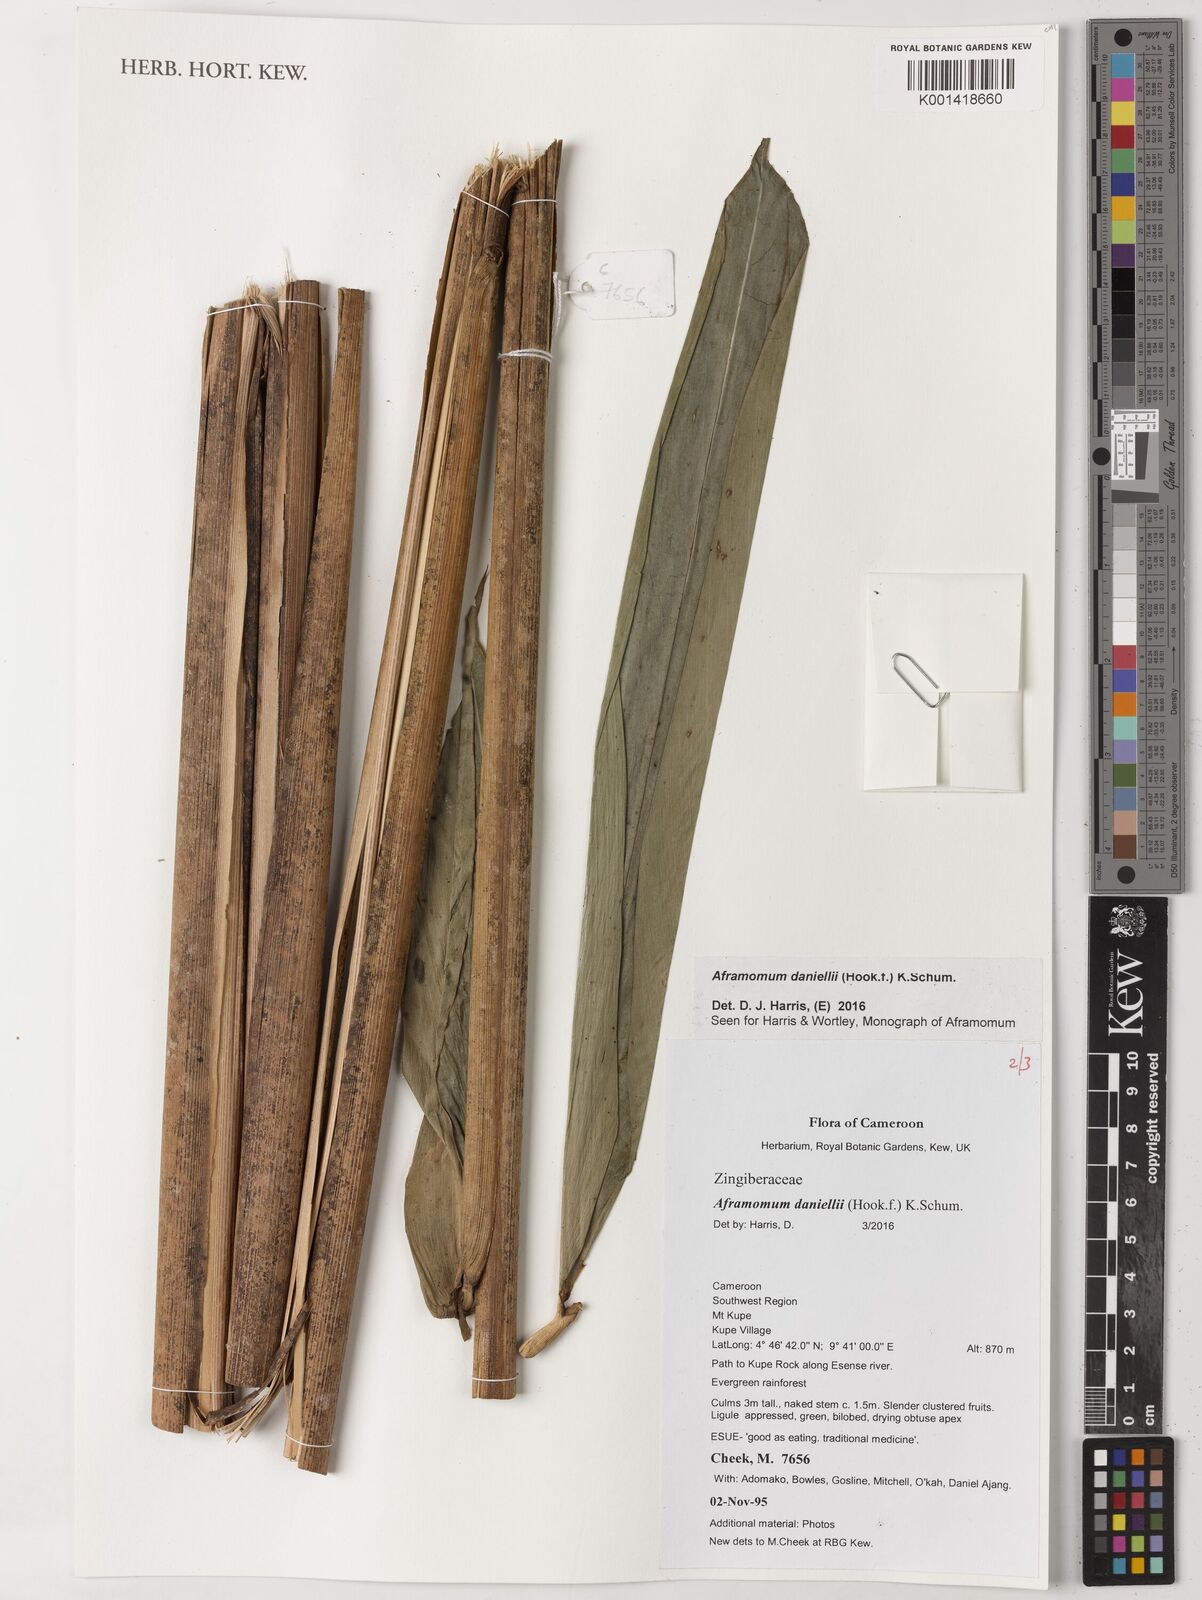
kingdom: Plantae
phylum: Tracheophyta
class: Liliopsida
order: Zingiberales
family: Zingiberaceae
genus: Aframomum
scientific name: Aframomum daniellii
